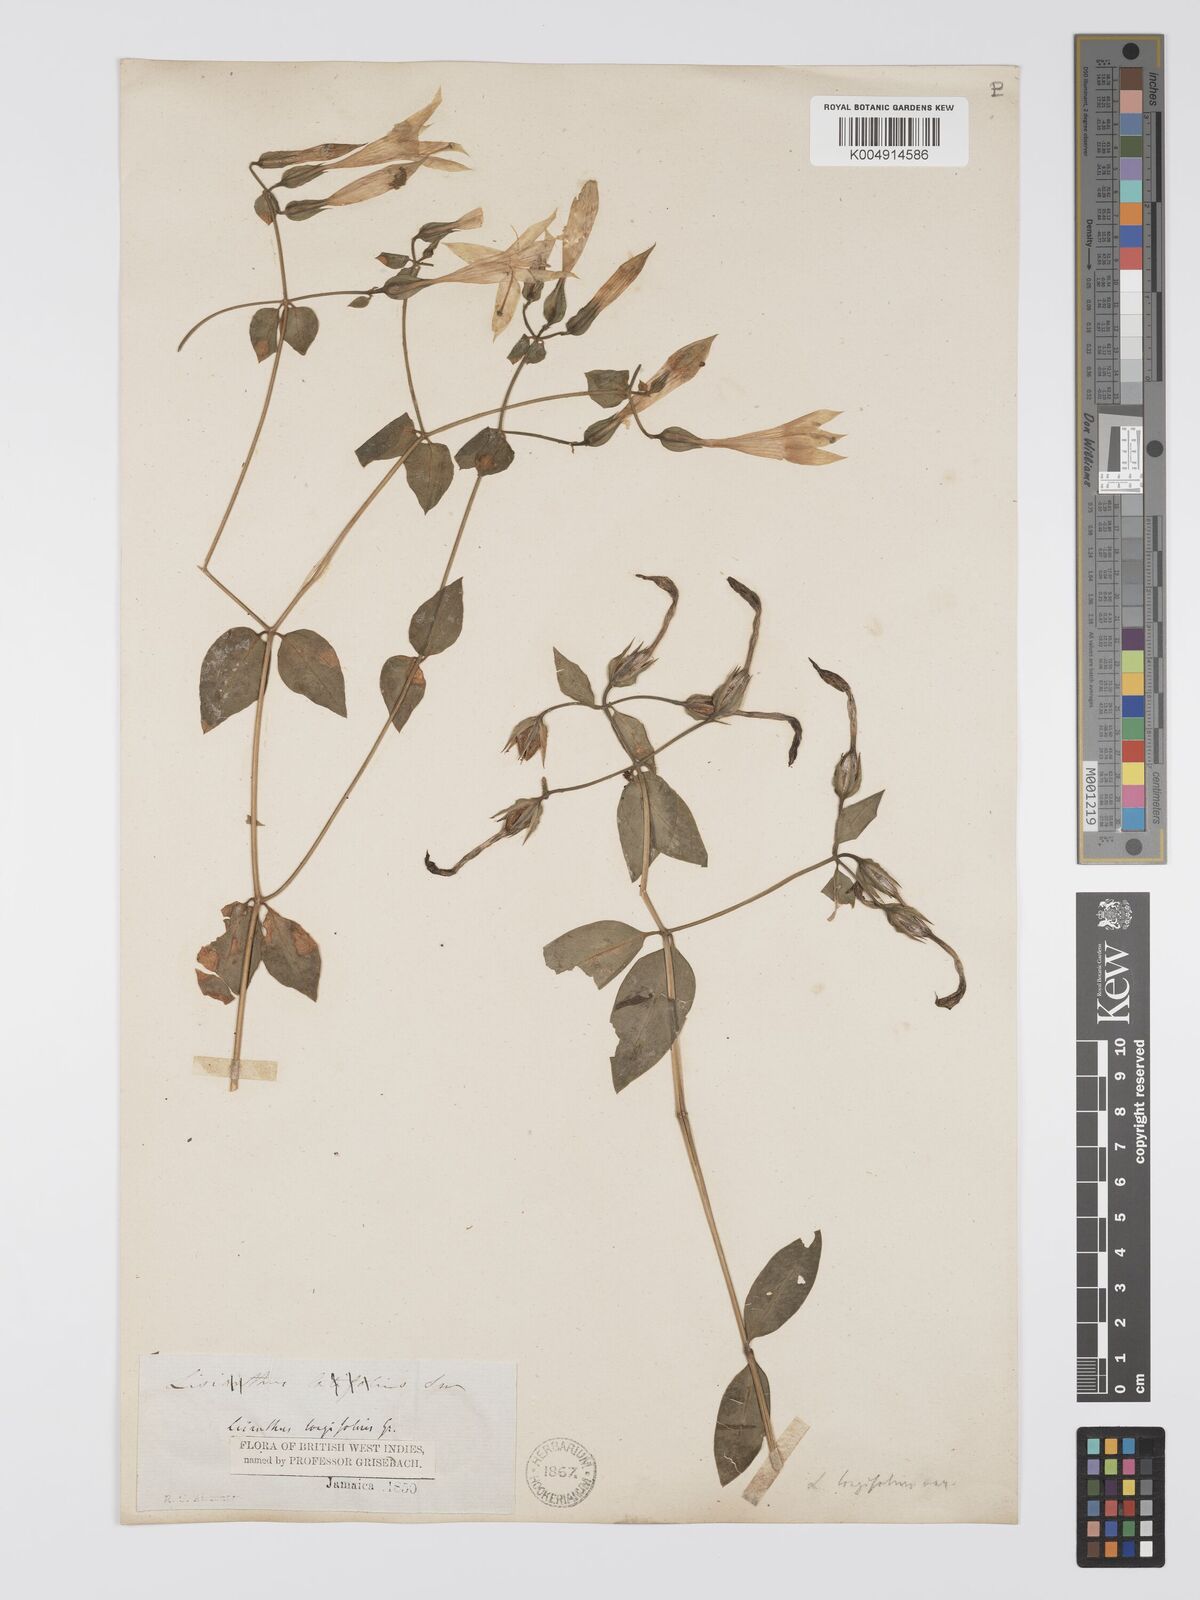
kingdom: Plantae
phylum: Tracheophyta
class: Magnoliopsida
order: Gentianales
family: Gentianaceae
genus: Lisianthus
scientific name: Lisianthus longifolius
